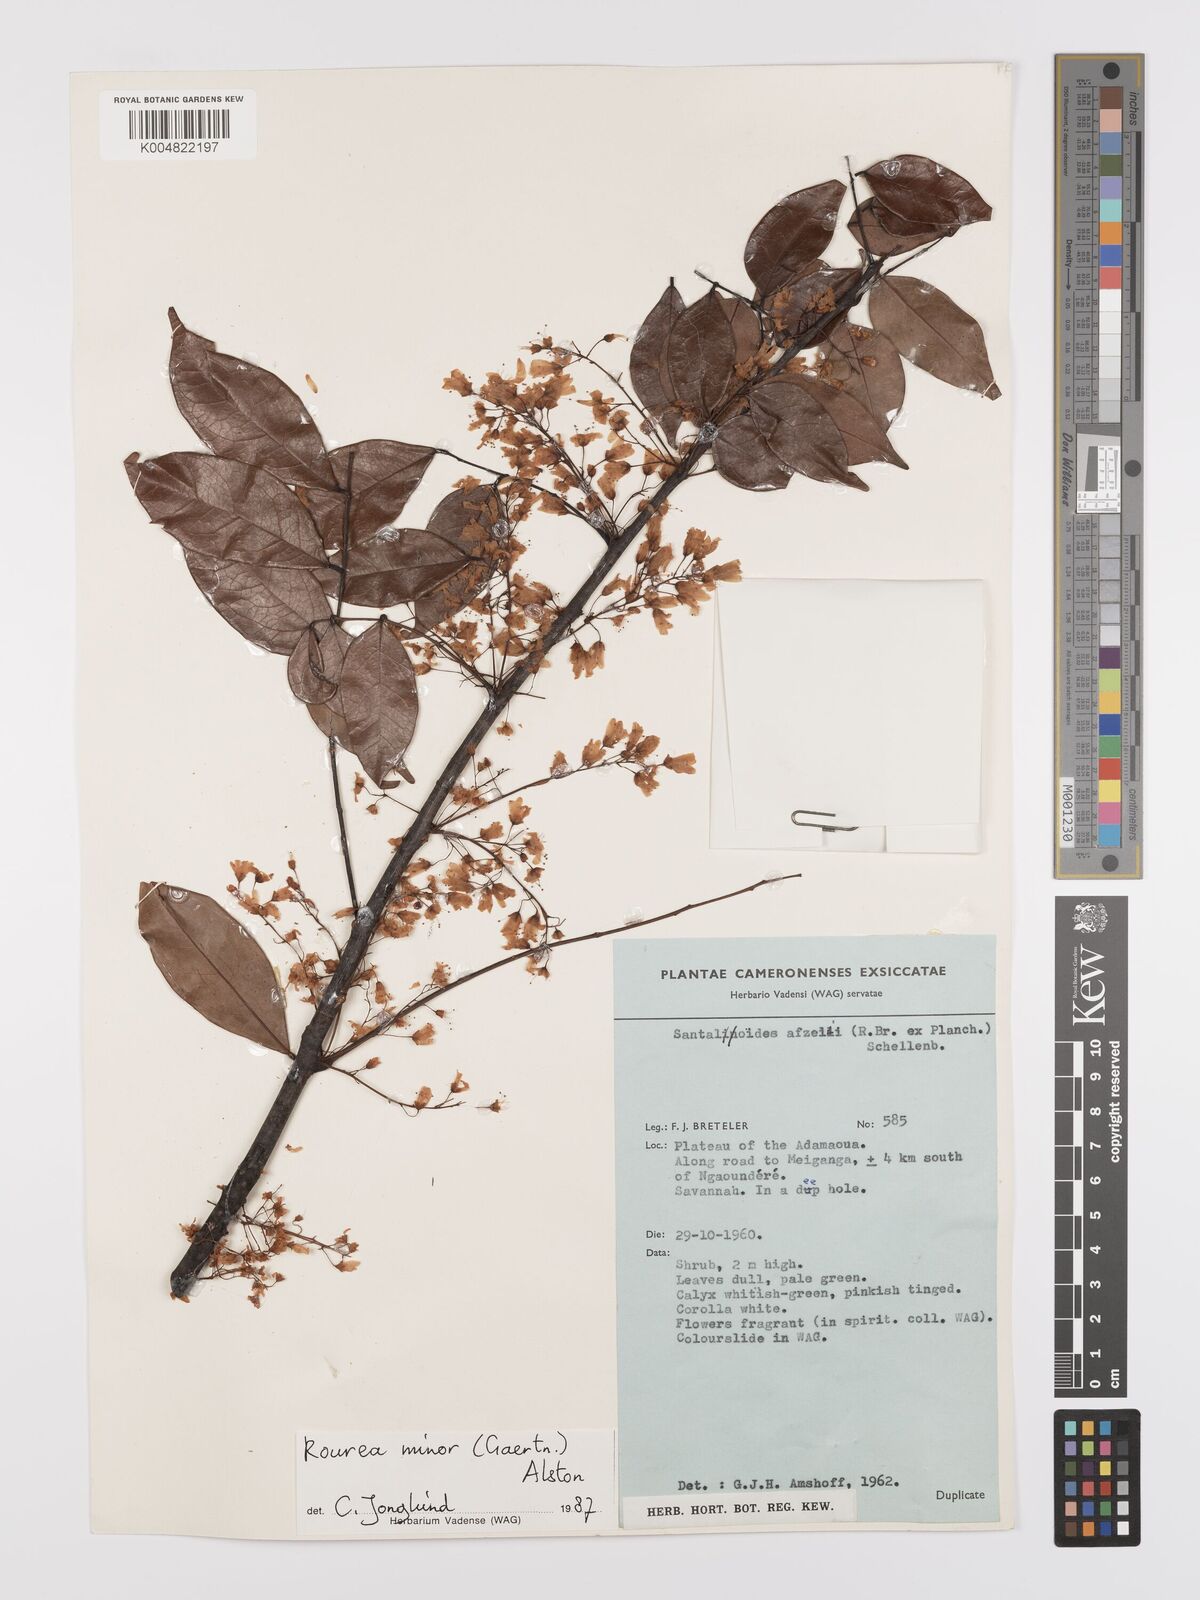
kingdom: Plantae
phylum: Tracheophyta
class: Magnoliopsida
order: Oxalidales
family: Connaraceae
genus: Rourea
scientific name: Rourea minor
